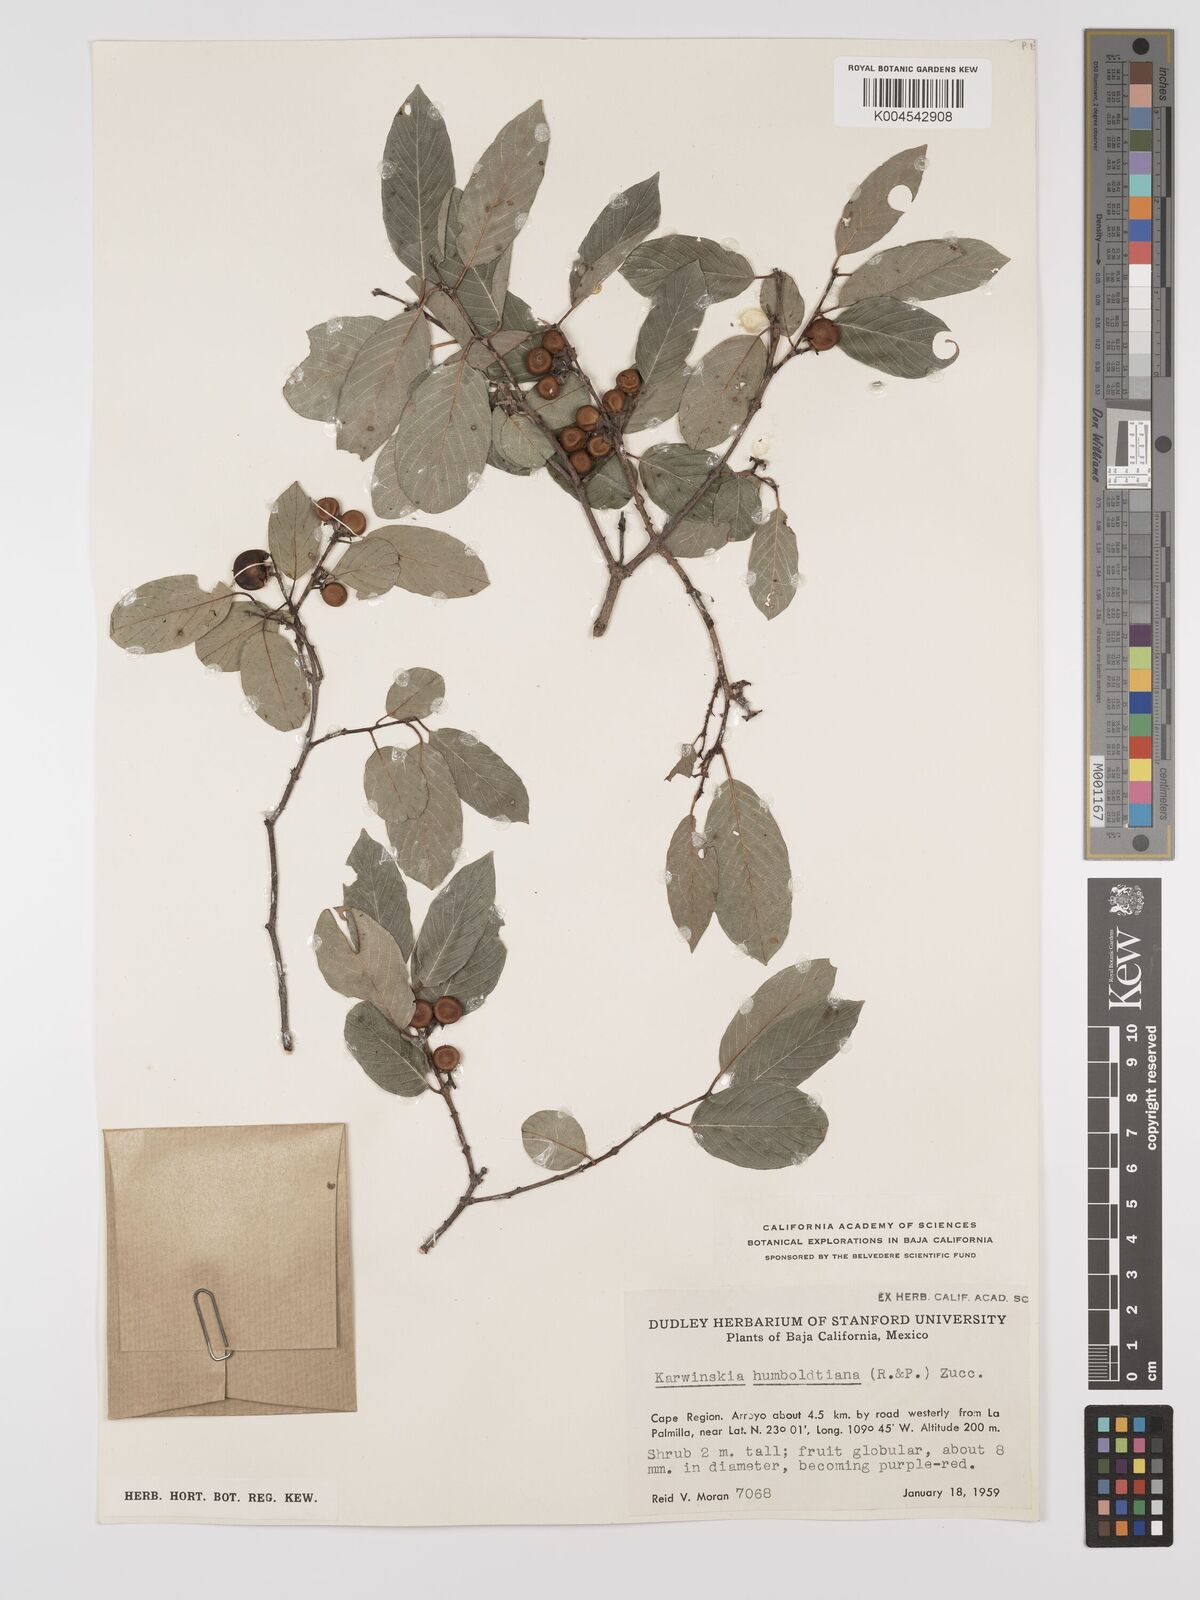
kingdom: Plantae
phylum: Tracheophyta
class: Magnoliopsida
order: Rosales
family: Rhamnaceae
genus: Karwinskia
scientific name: Karwinskia humboldtiana
